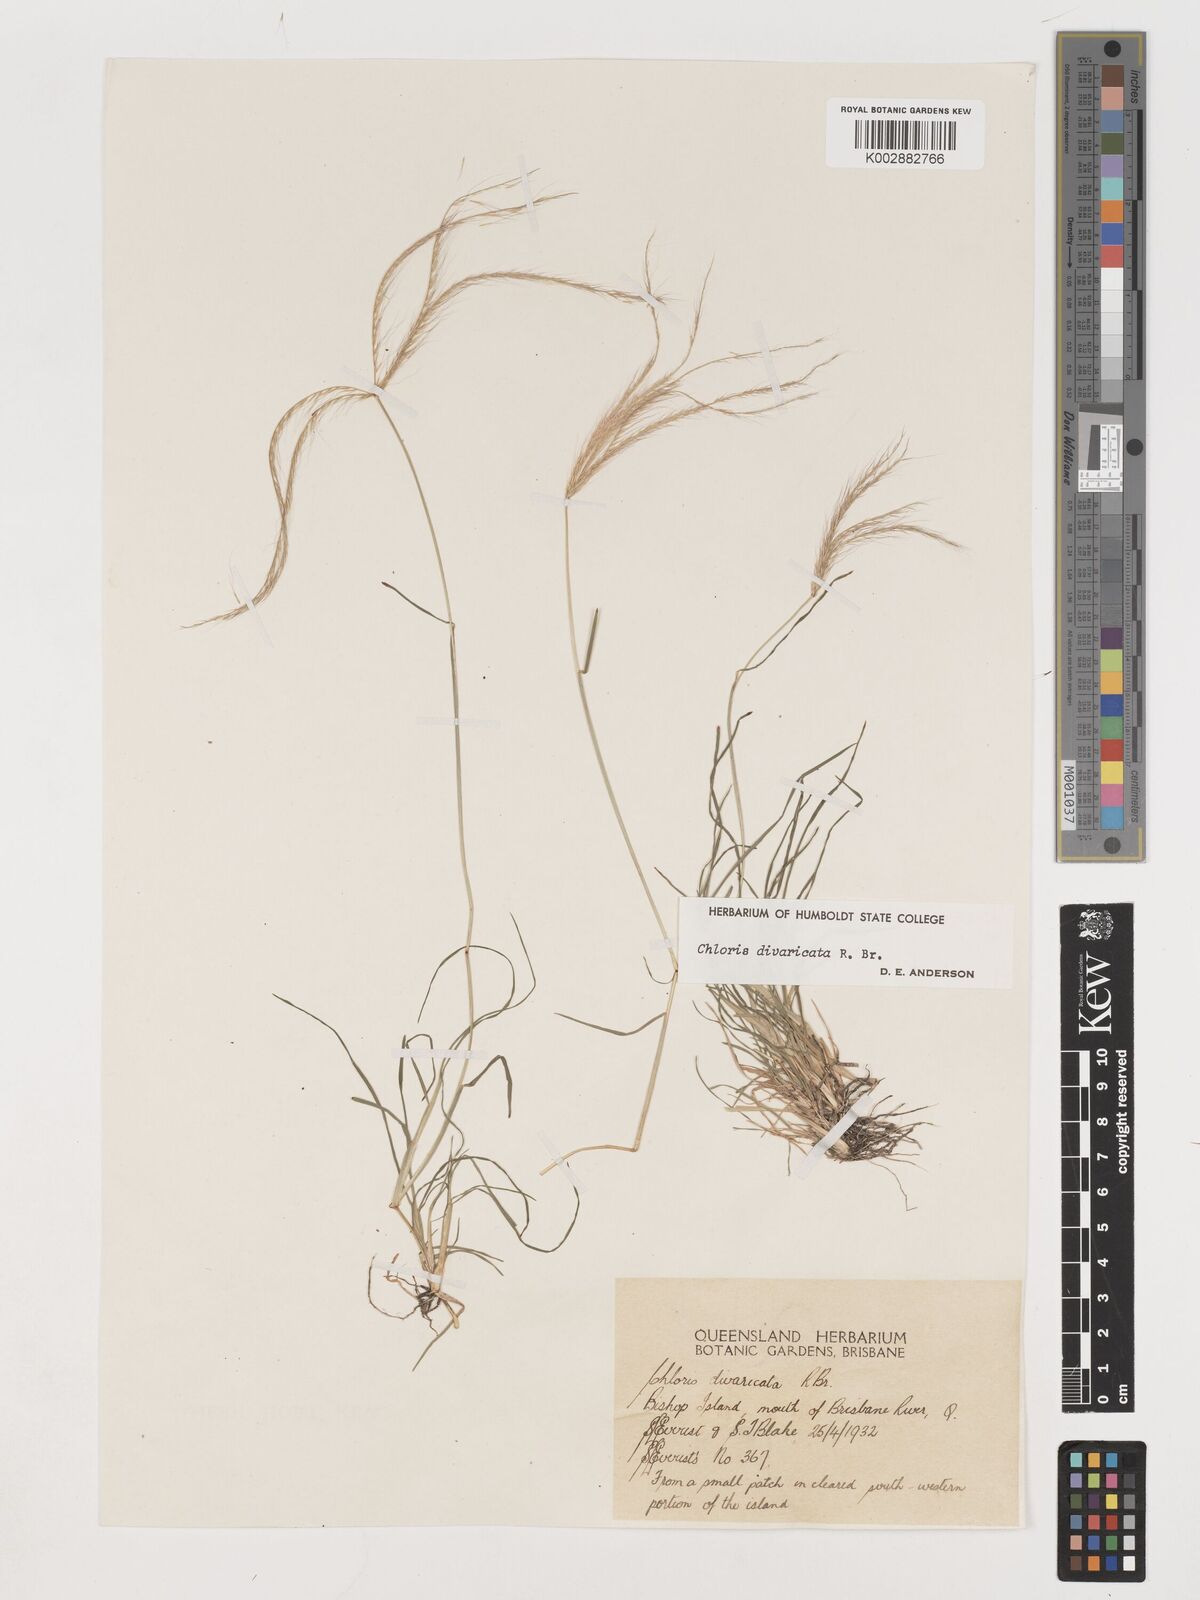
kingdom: Plantae
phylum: Tracheophyta
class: Liliopsida
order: Poales
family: Poaceae
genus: Chloris
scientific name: Chloris divaricata
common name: Spreading windmill grass
